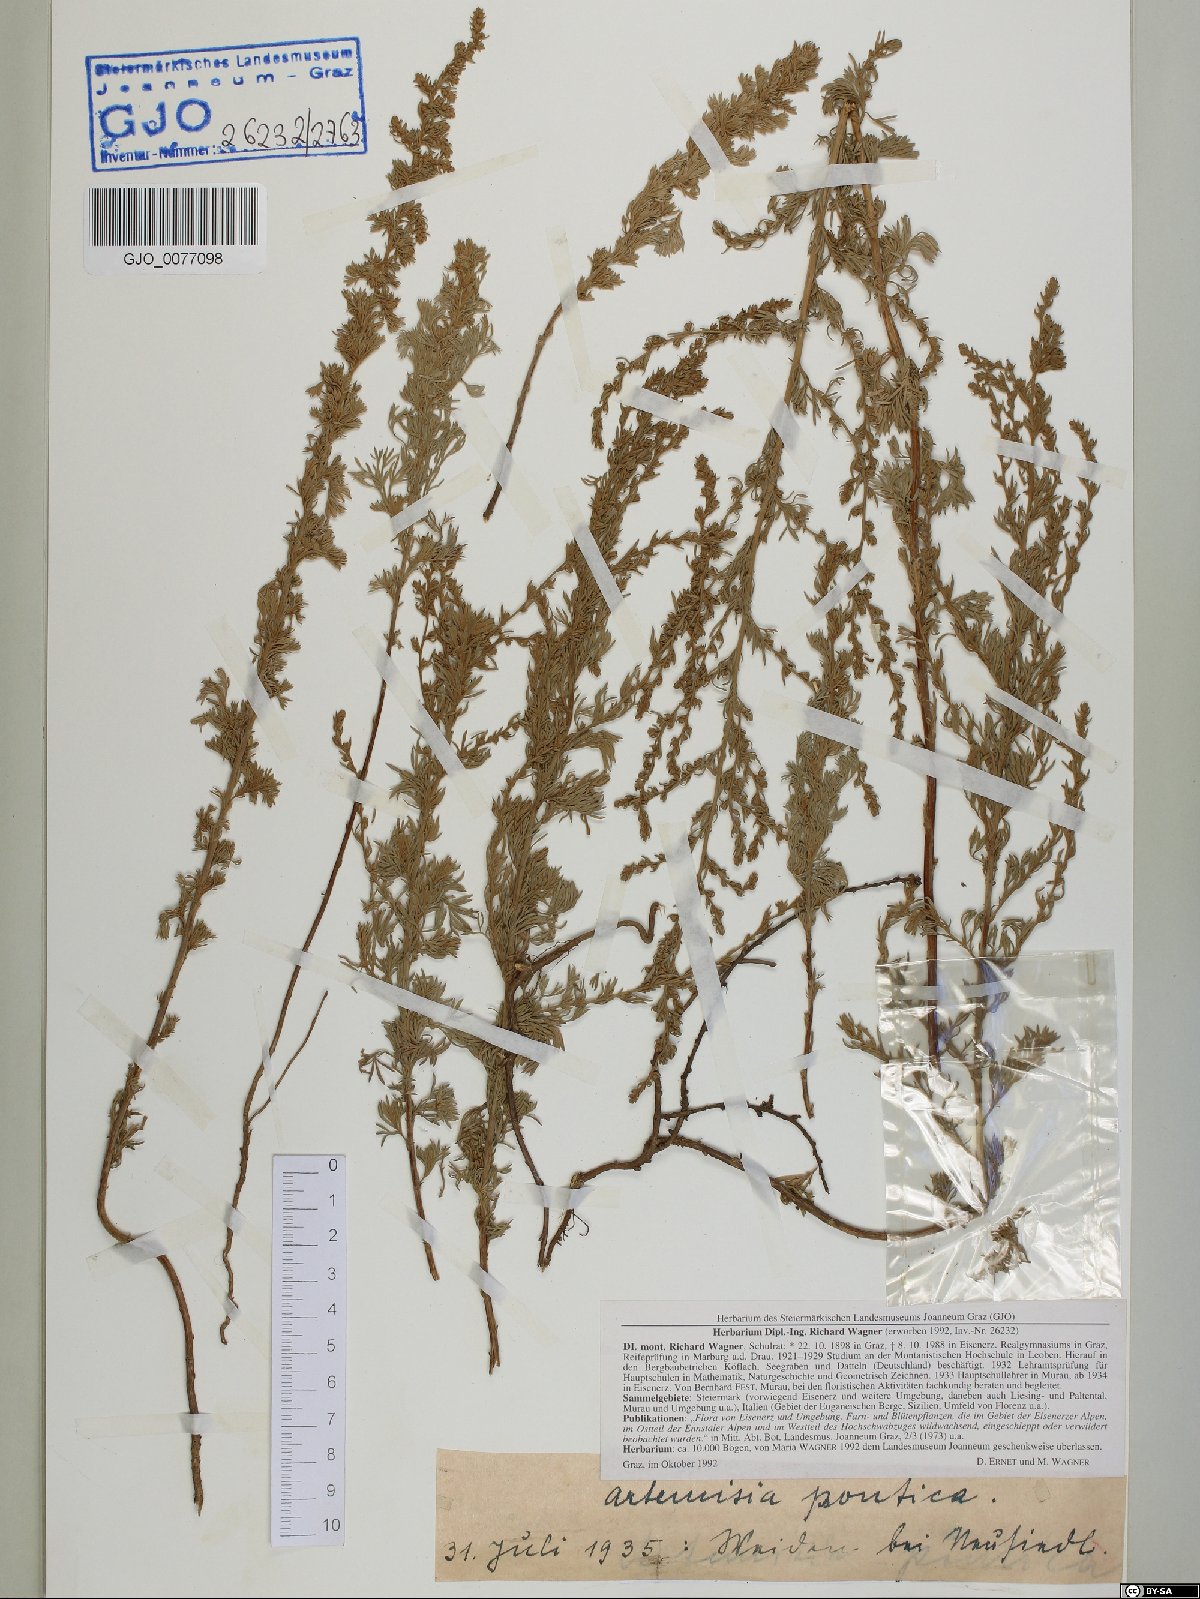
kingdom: Plantae
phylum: Tracheophyta
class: Magnoliopsida
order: Asterales
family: Asteraceae
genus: Artemisia
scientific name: Artemisia pontica
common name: Roman wormwood
